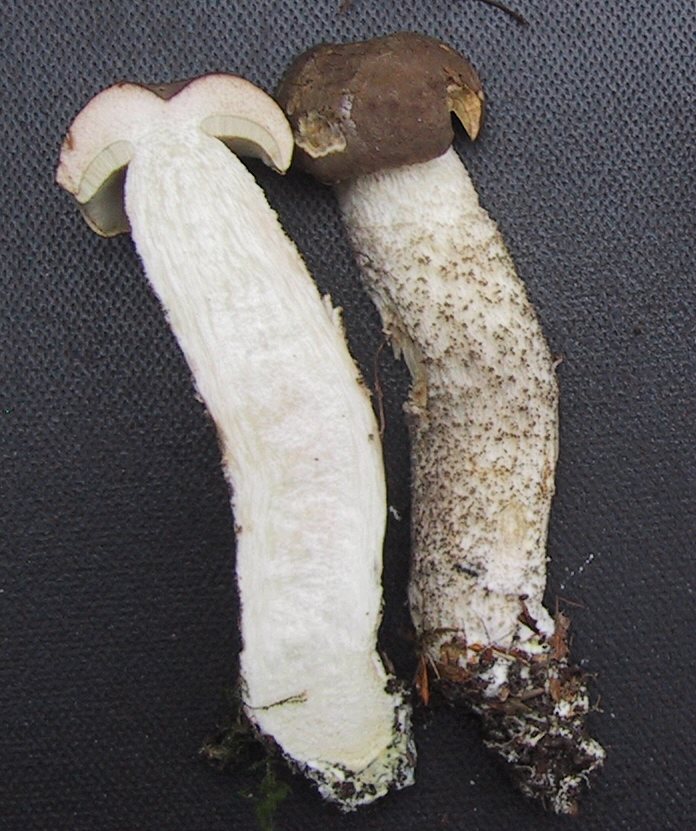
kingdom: Fungi
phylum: Basidiomycota
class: Agaricomycetes
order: Boletales
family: Boletaceae
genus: Leccinum
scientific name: Leccinum scabrum
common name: brun skælrørhat
